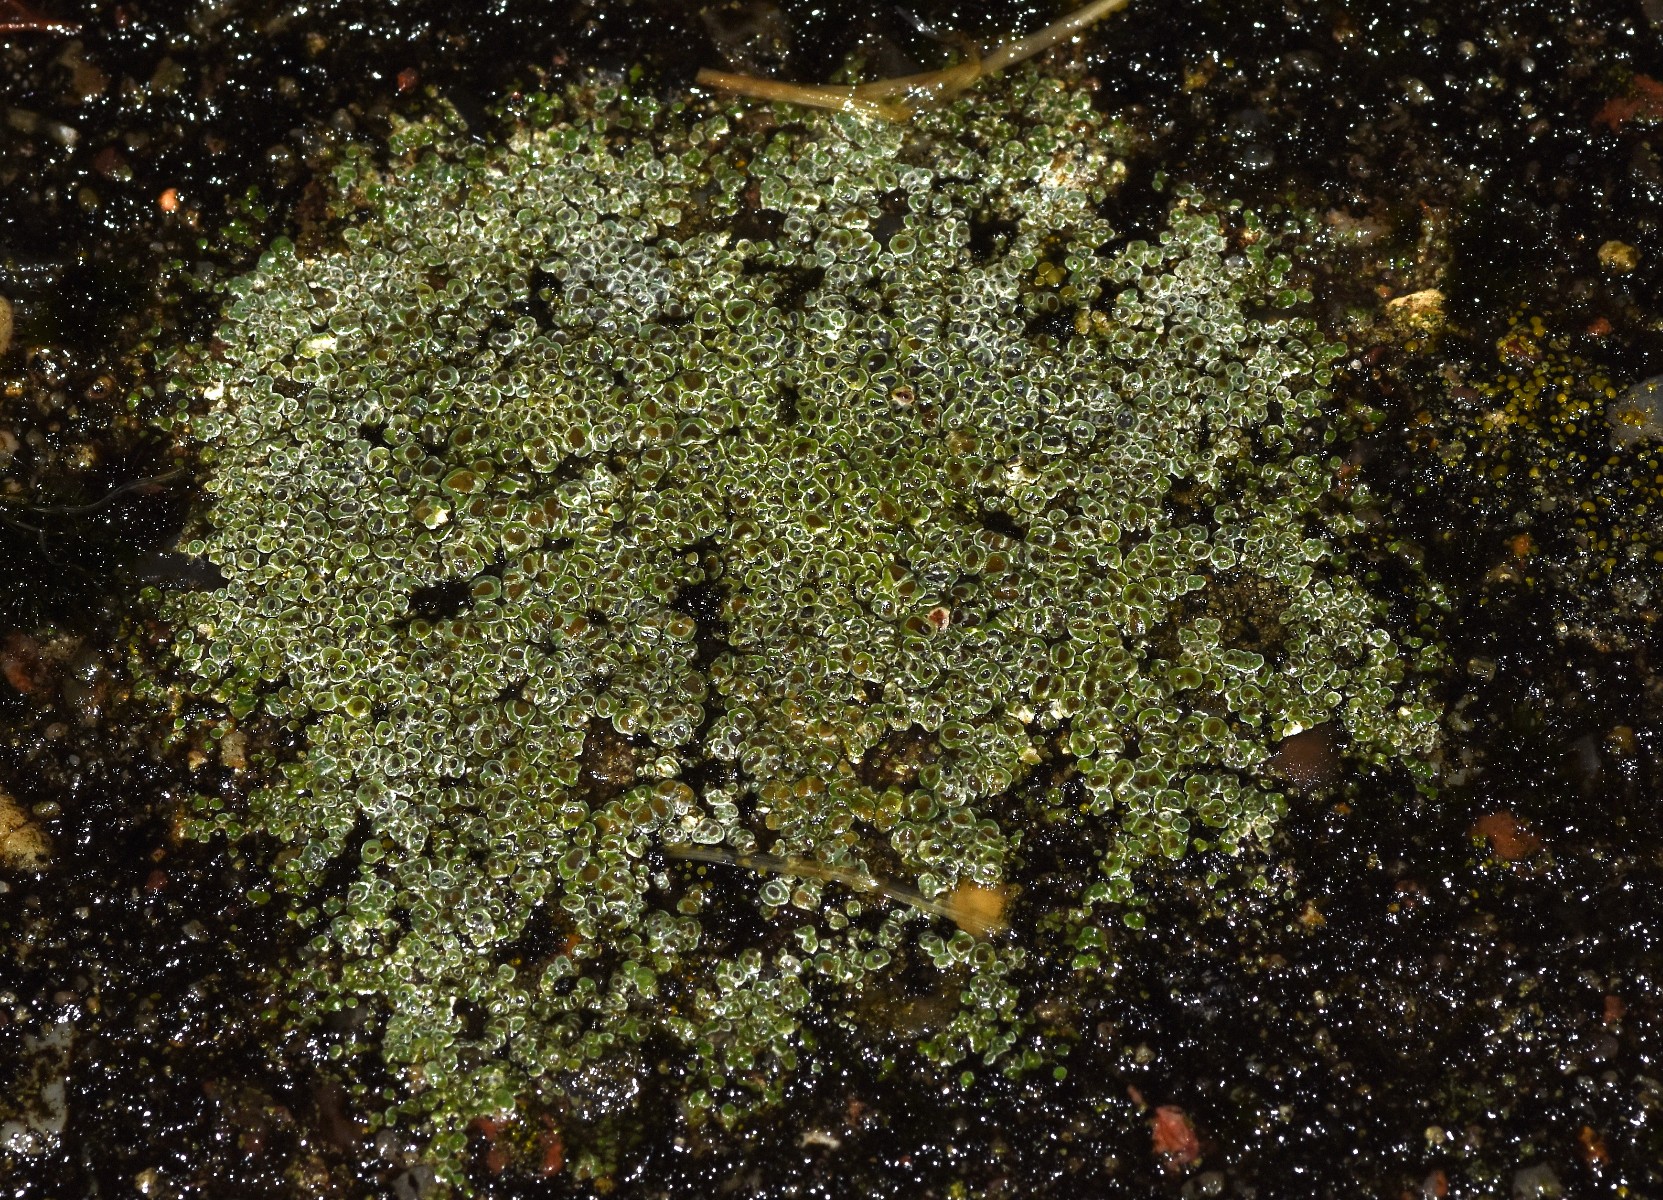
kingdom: Fungi
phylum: Ascomycota
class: Lecanoromycetes
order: Pertusariales
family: Megasporaceae
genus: Circinaria
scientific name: Circinaria contorta
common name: indviklet hulskivelav
